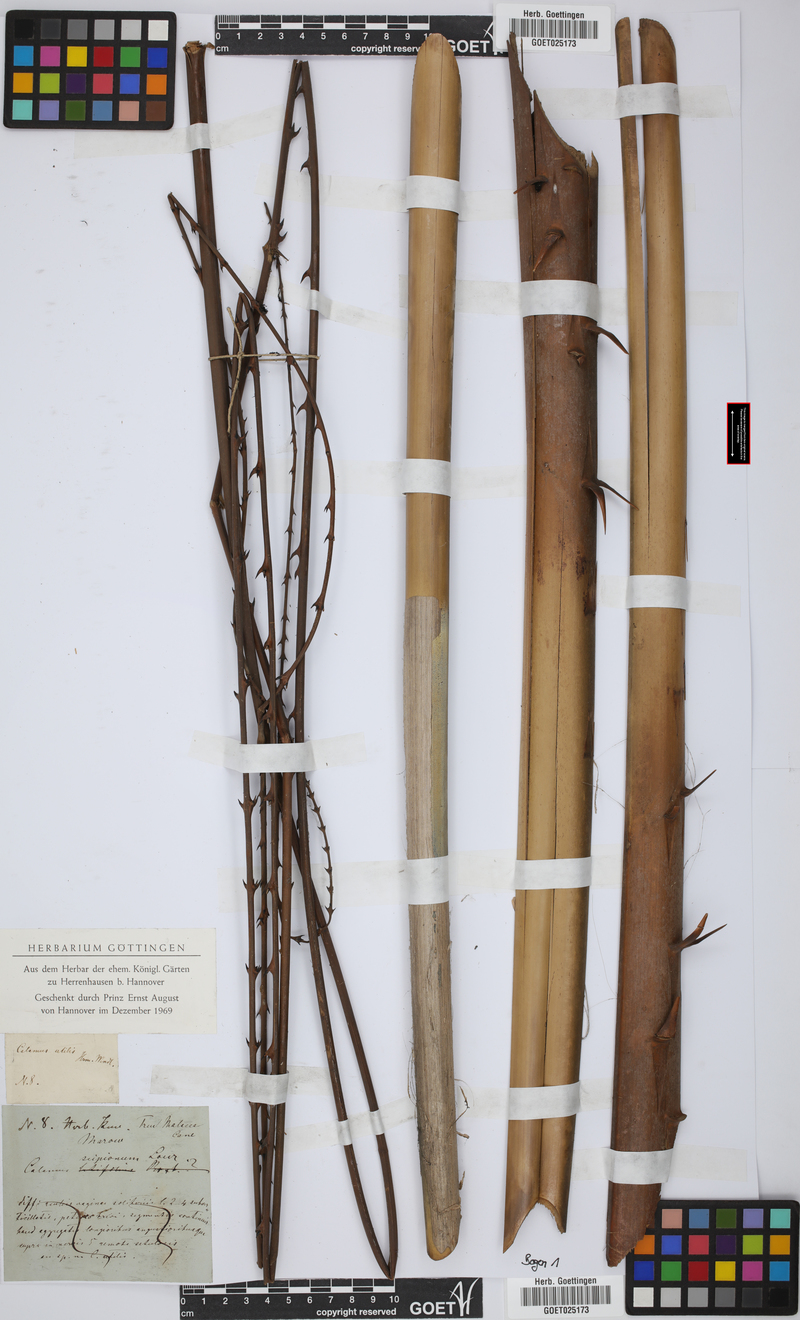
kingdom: Plantae
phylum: Tracheophyta
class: Liliopsida
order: Arecales
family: Arecaceae
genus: Calamus
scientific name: Calamus scipionum
